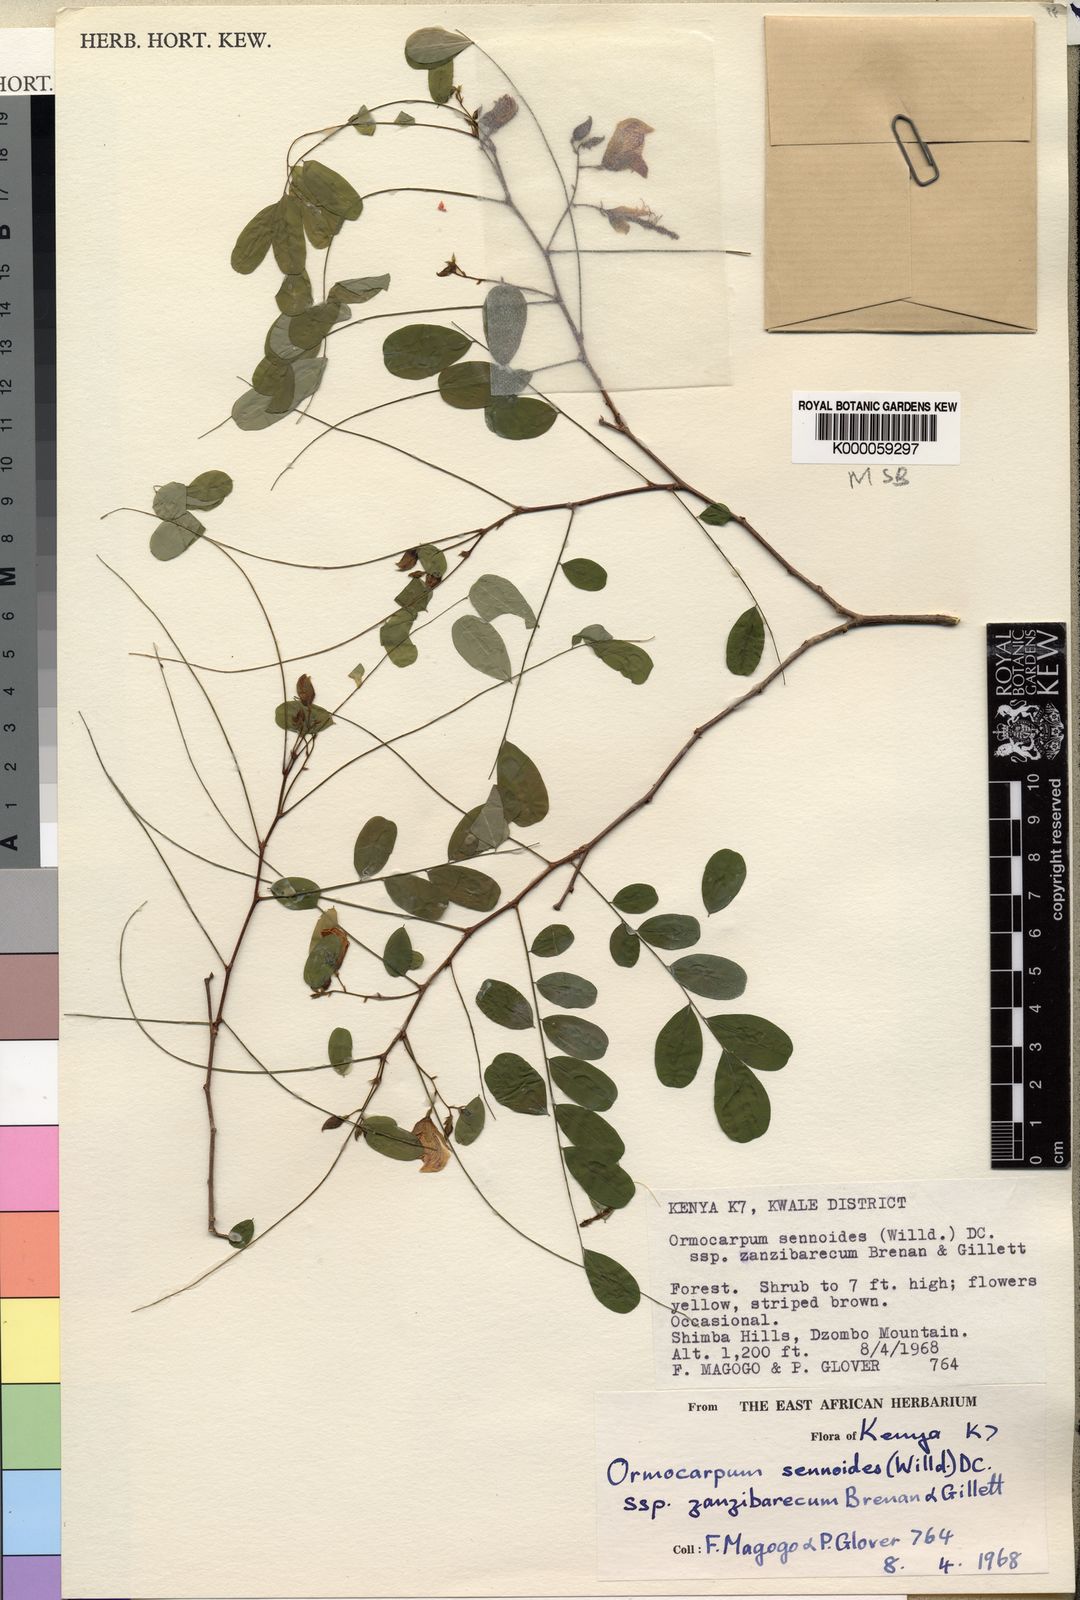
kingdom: Plantae
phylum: Tracheophyta
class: Magnoliopsida
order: Fabales
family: Fabaceae
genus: Ormocarpum
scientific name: Ormocarpum sennoides
